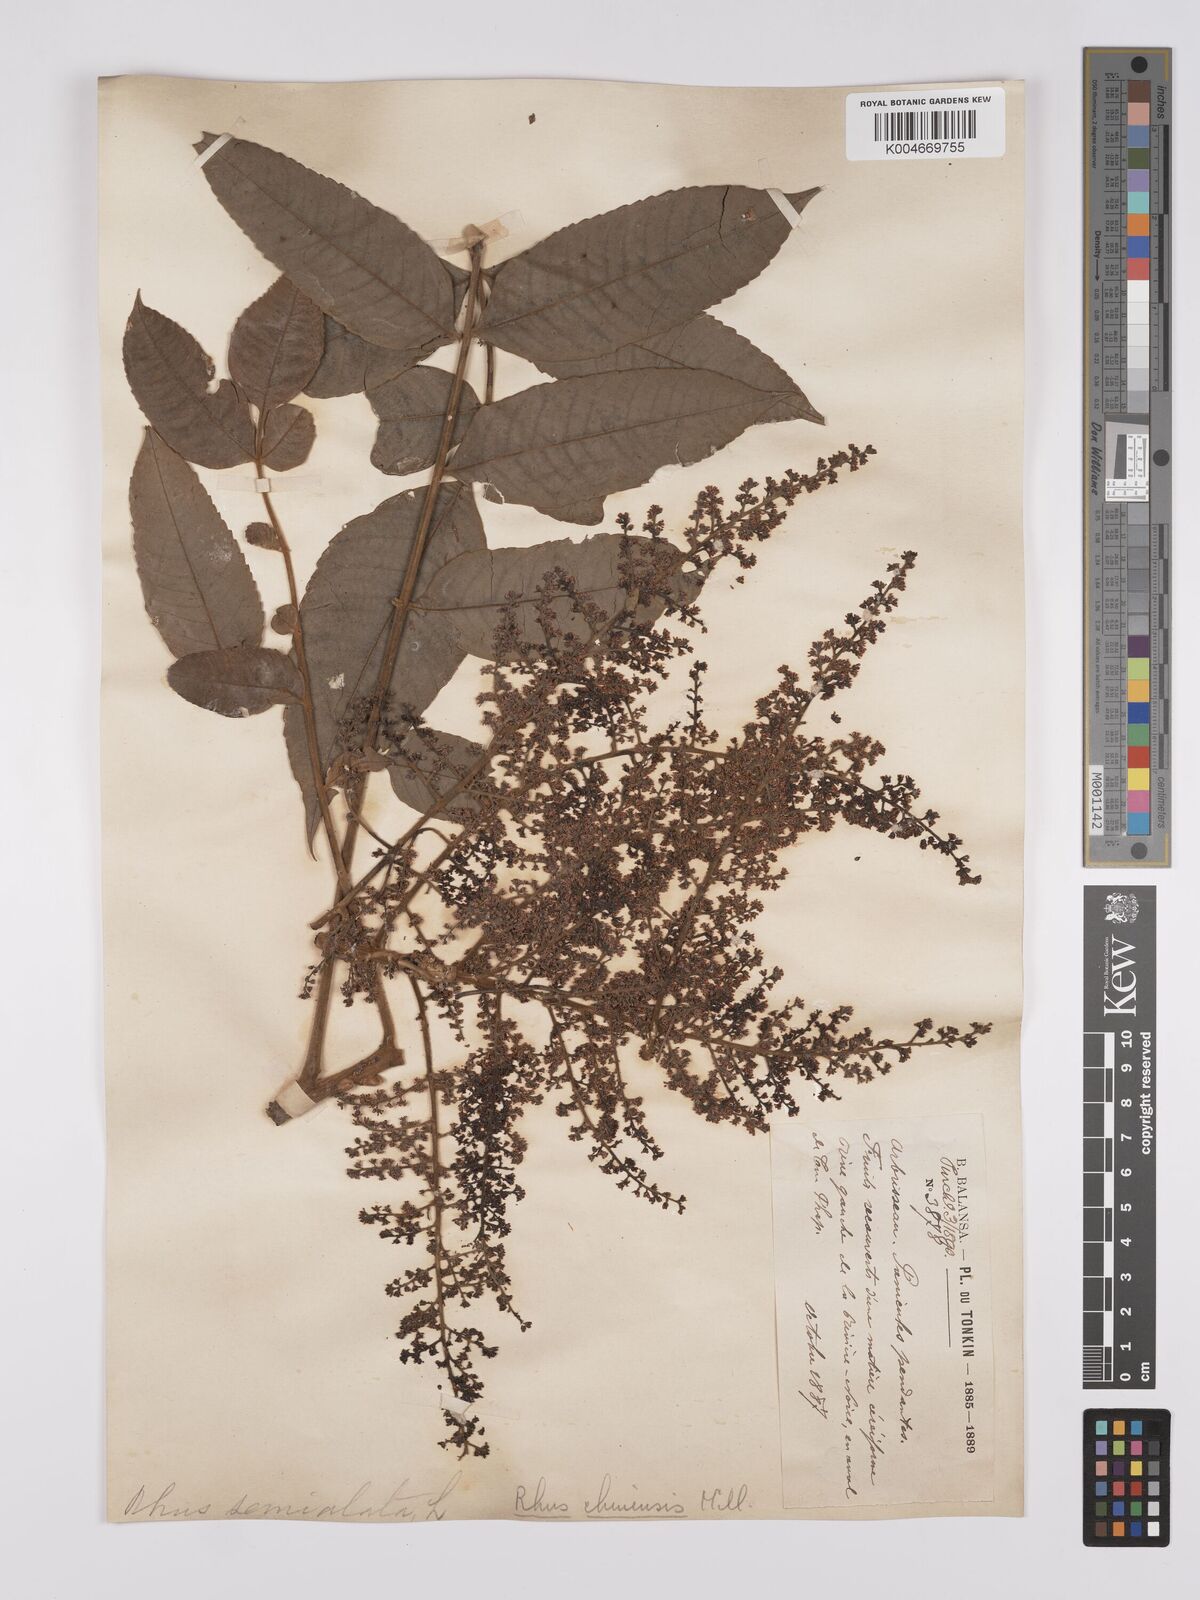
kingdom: Plantae
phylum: Tracheophyta
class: Magnoliopsida
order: Sapindales
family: Anacardiaceae
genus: Rhus
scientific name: Rhus chinensis
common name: Chinese gall
